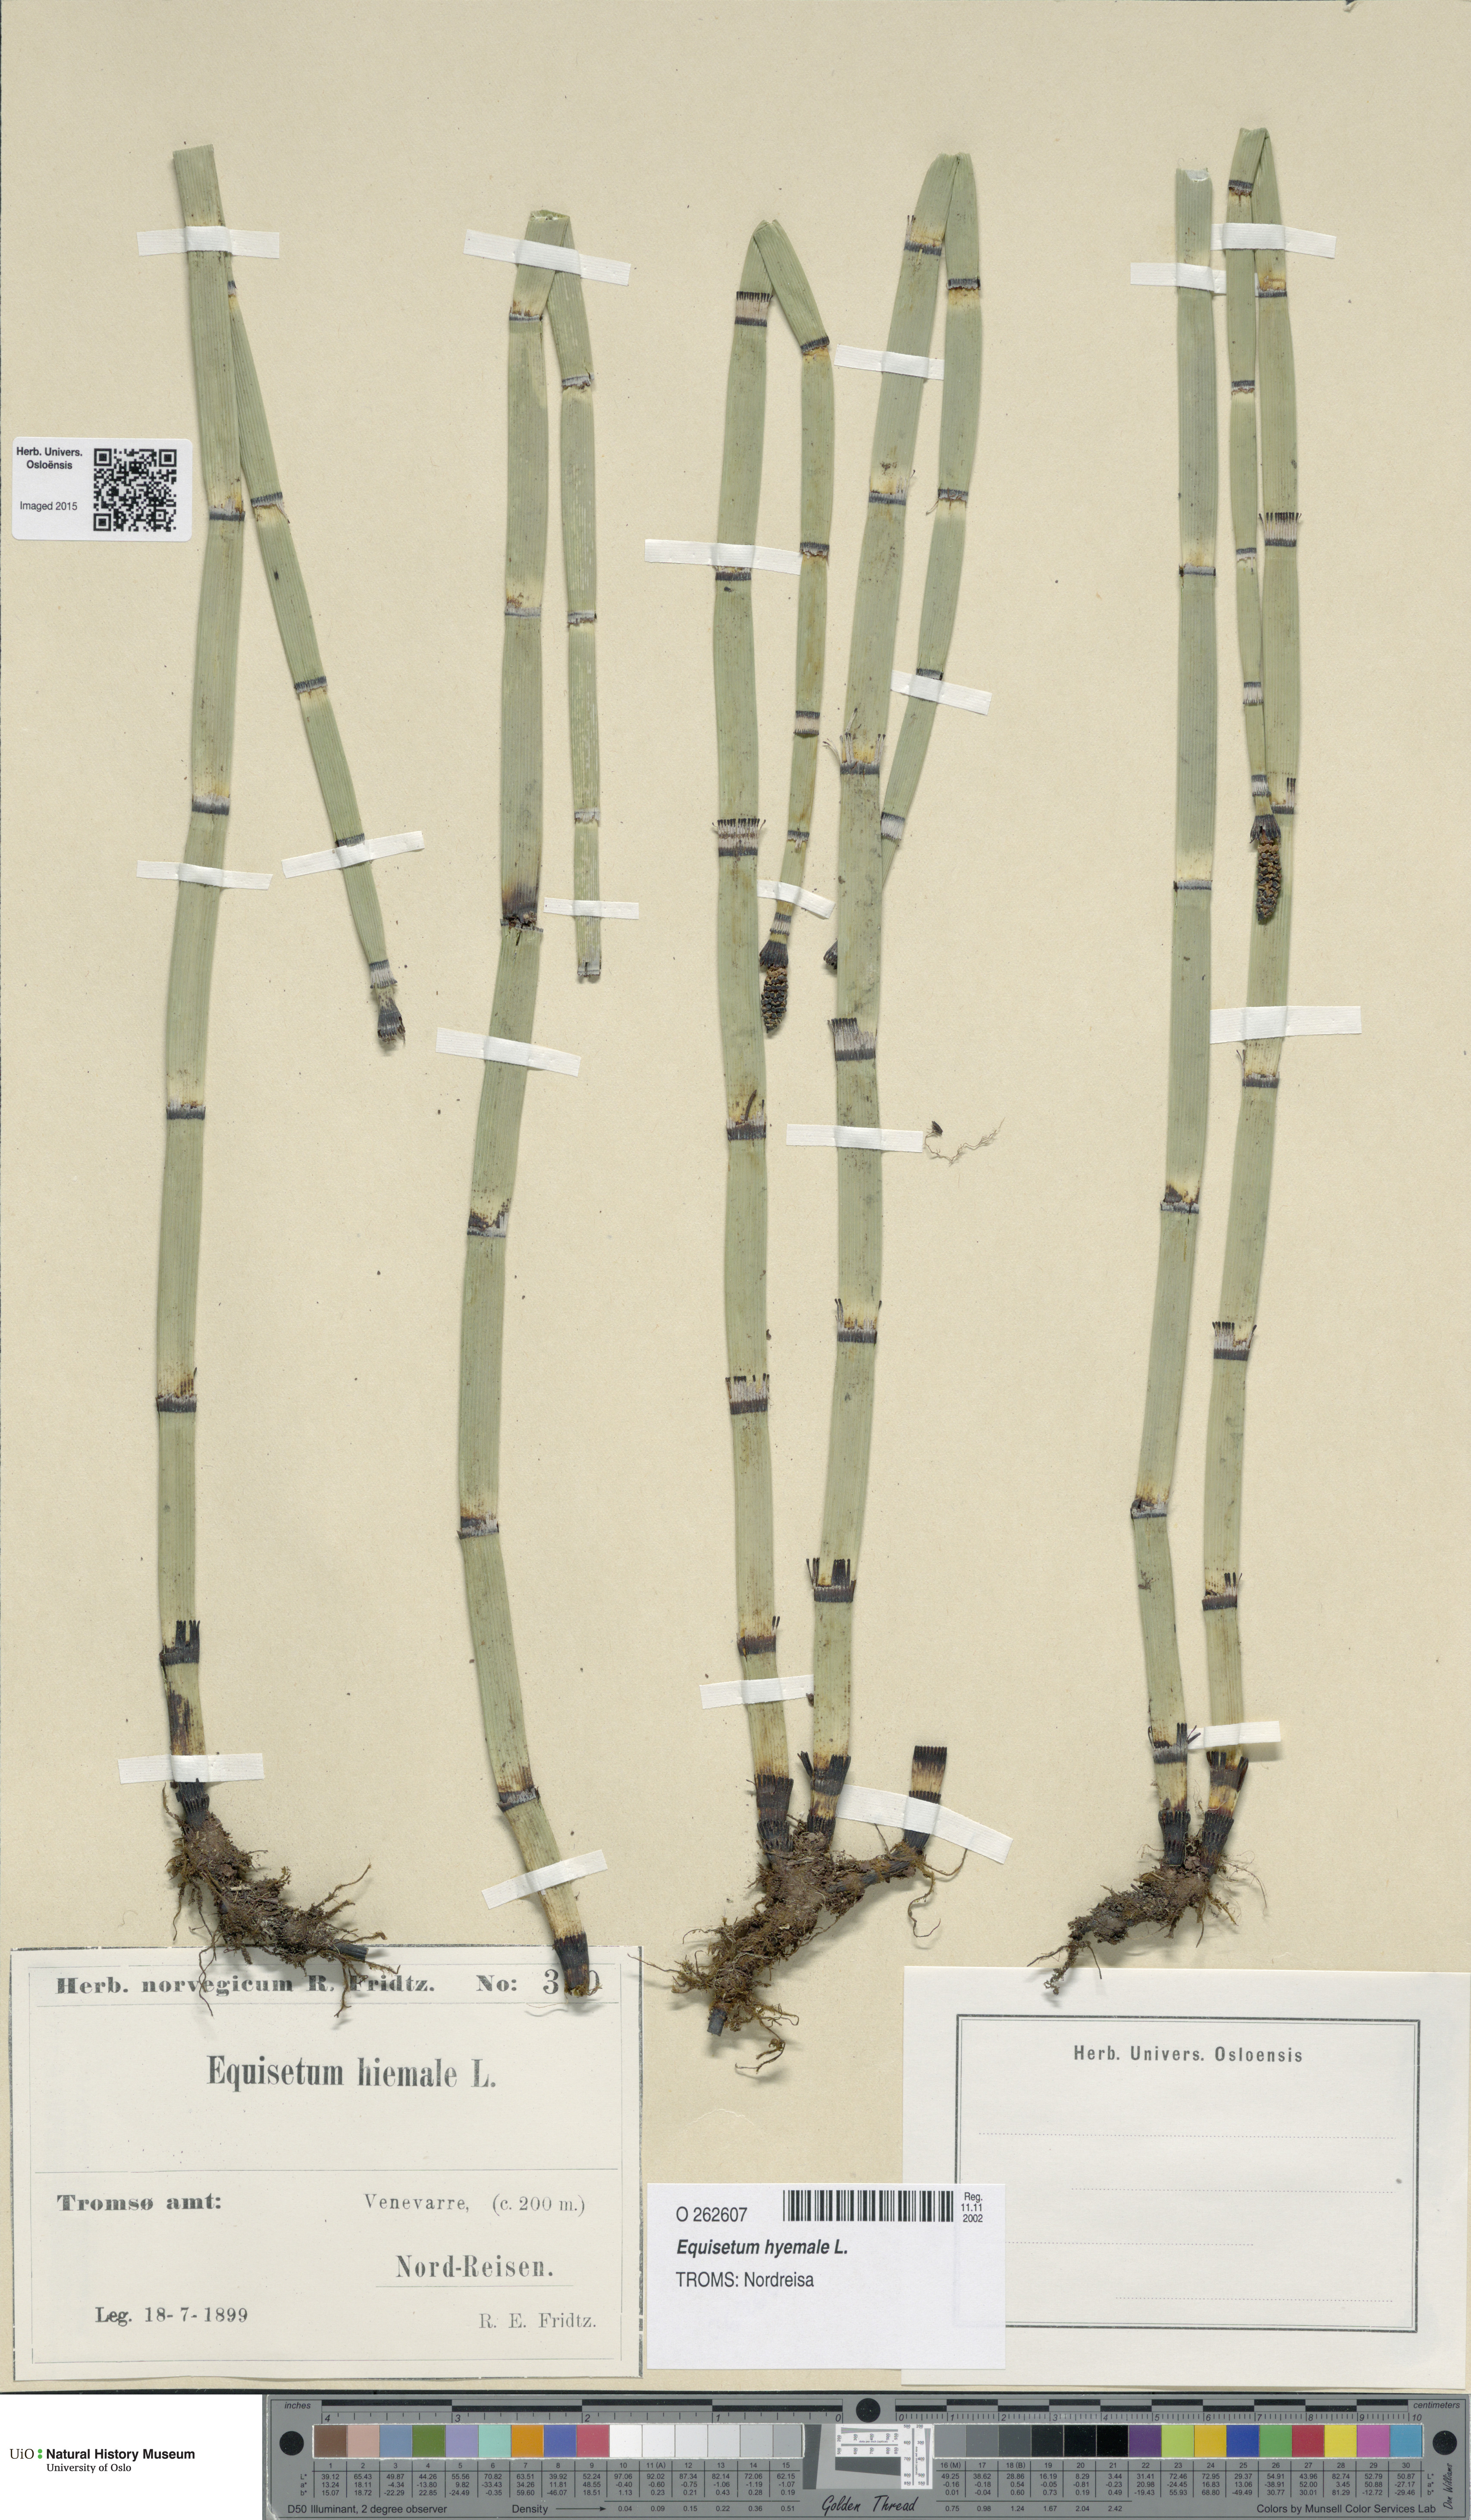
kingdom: Plantae
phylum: Tracheophyta
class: Polypodiopsida
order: Equisetales
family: Equisetaceae
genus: Equisetum
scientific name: Equisetum hyemale
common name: Rough horsetail
